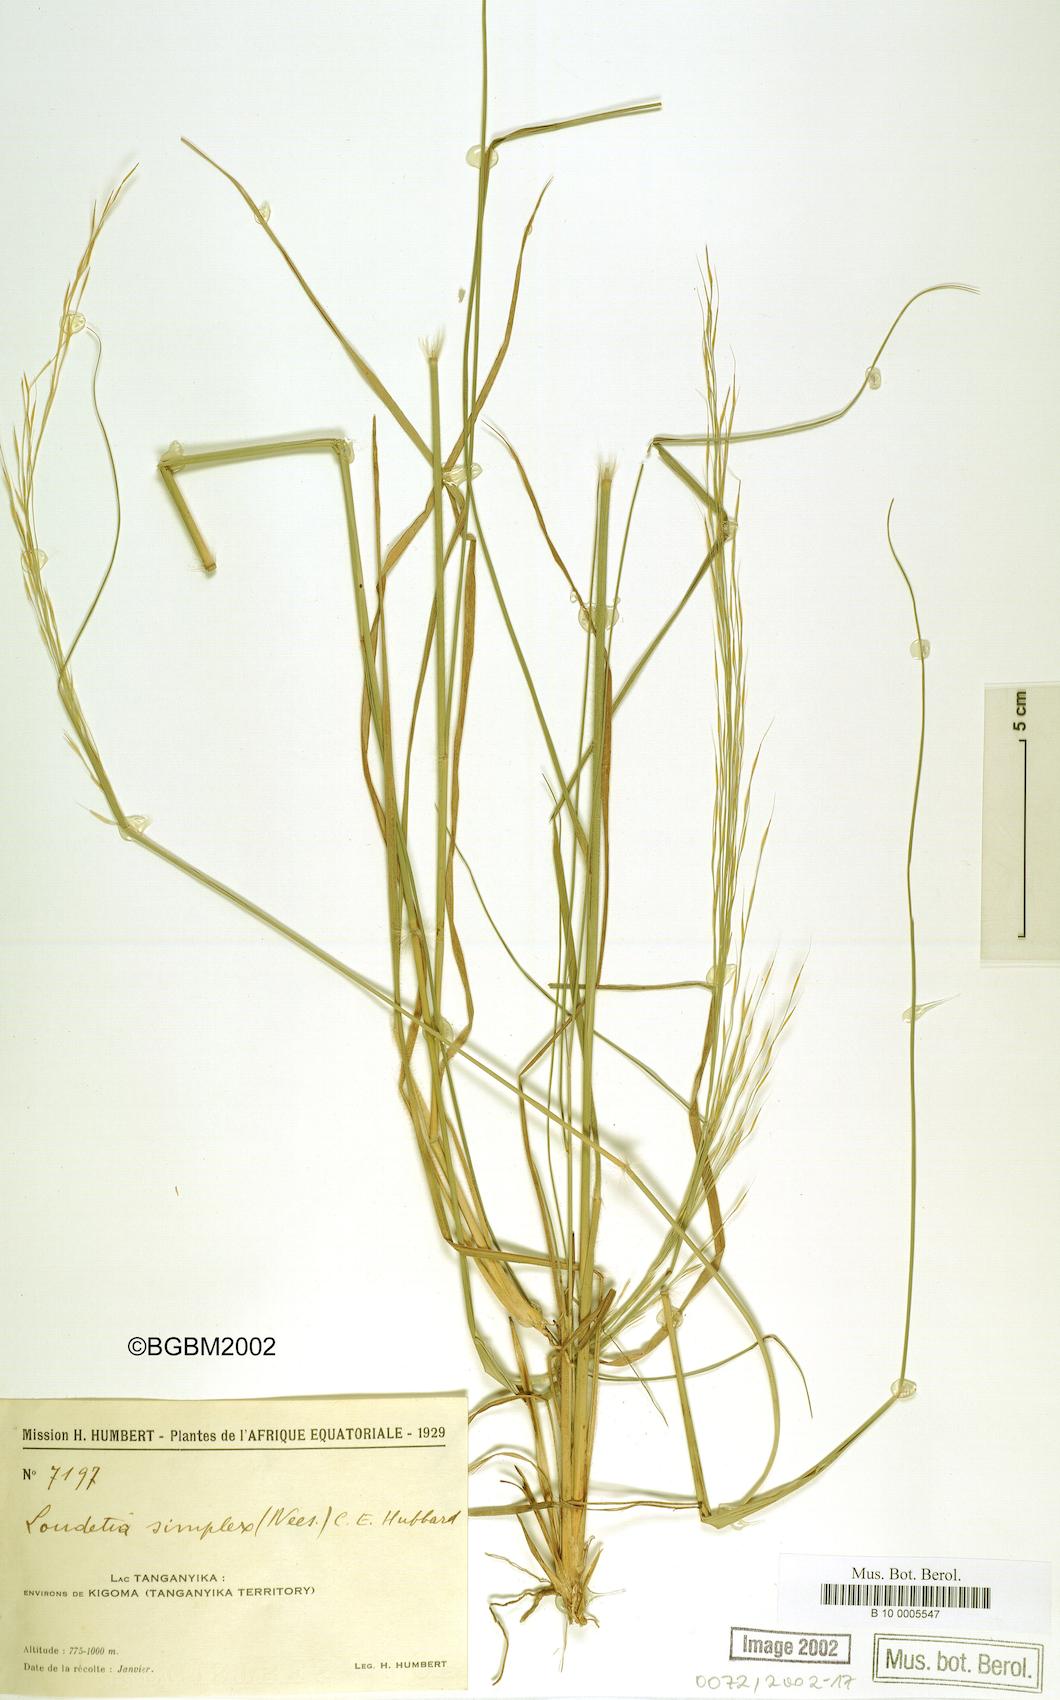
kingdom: Plantae
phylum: Tracheophyta
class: Liliopsida
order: Poales
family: Poaceae
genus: Loudetia
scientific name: Loudetia simplex
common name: Common russet grass
